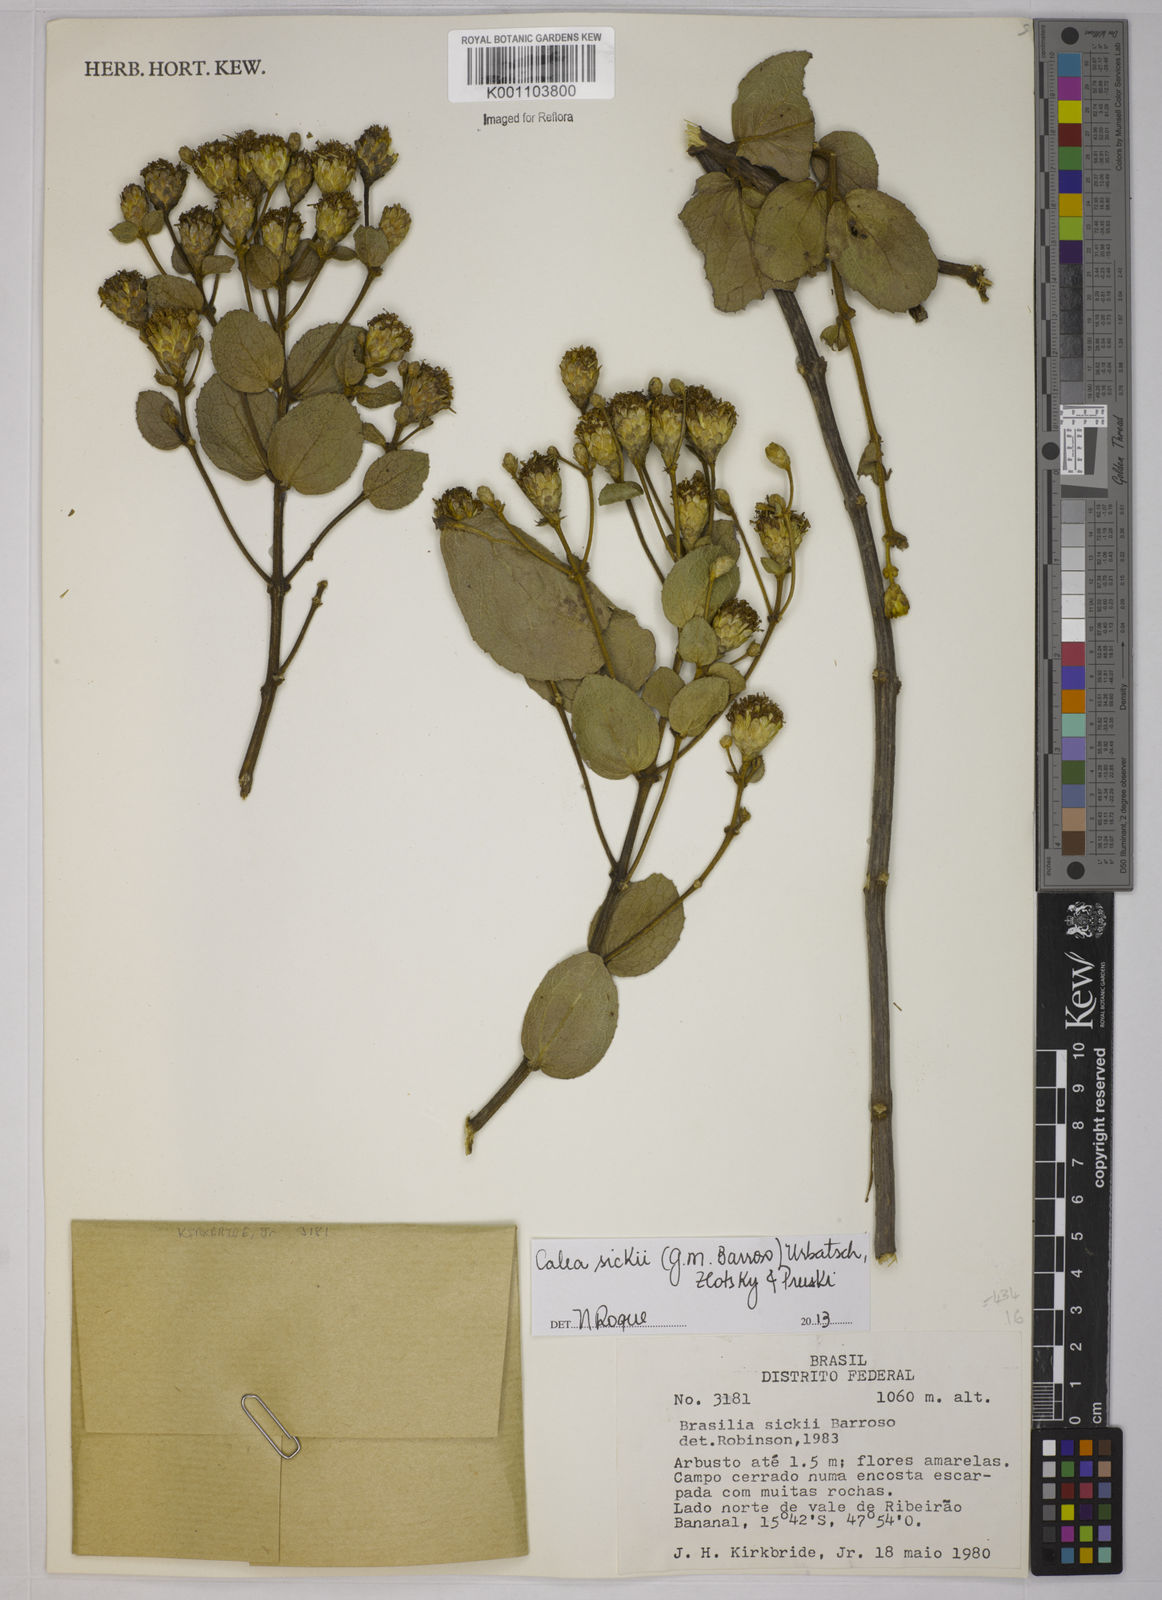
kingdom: Plantae
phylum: Tracheophyta
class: Magnoliopsida
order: Asterales
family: Asteraceae
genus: Calea
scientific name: Calea sickii
